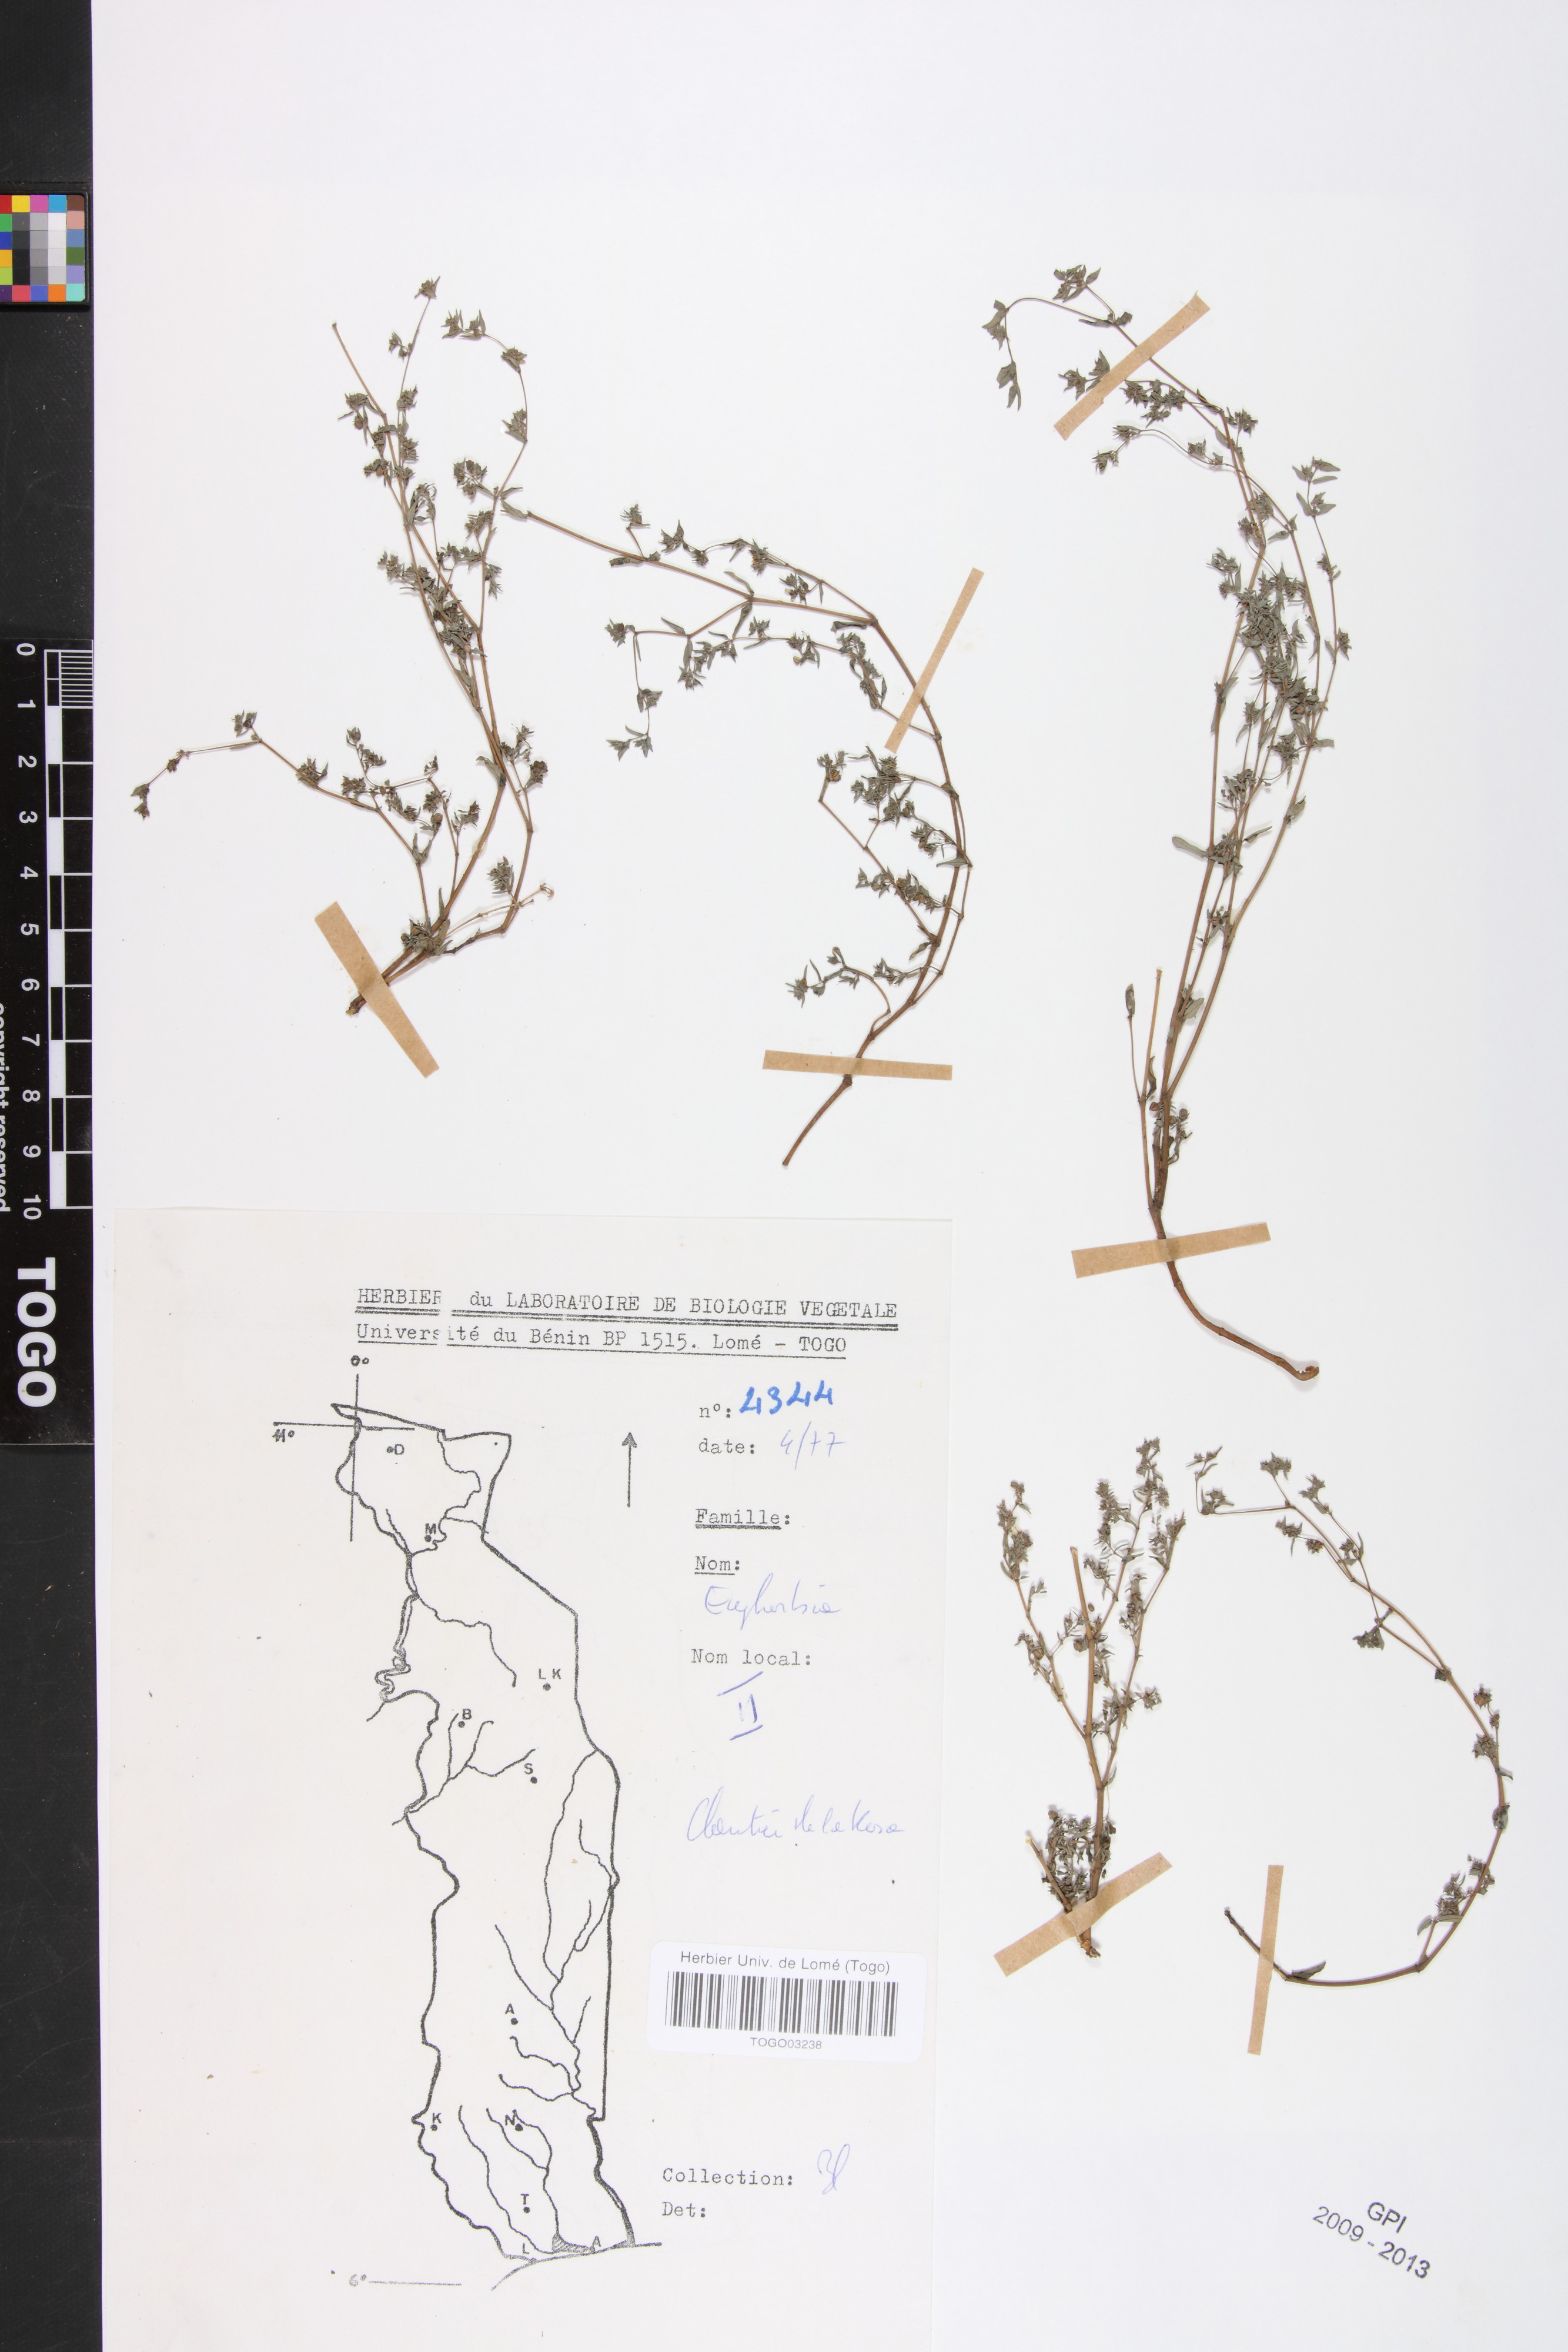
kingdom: Plantae
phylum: Tracheophyta
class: Magnoliopsida
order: Malpighiales
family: Euphorbiaceae
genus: Euphorbia
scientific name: Euphorbia polycnemoides
